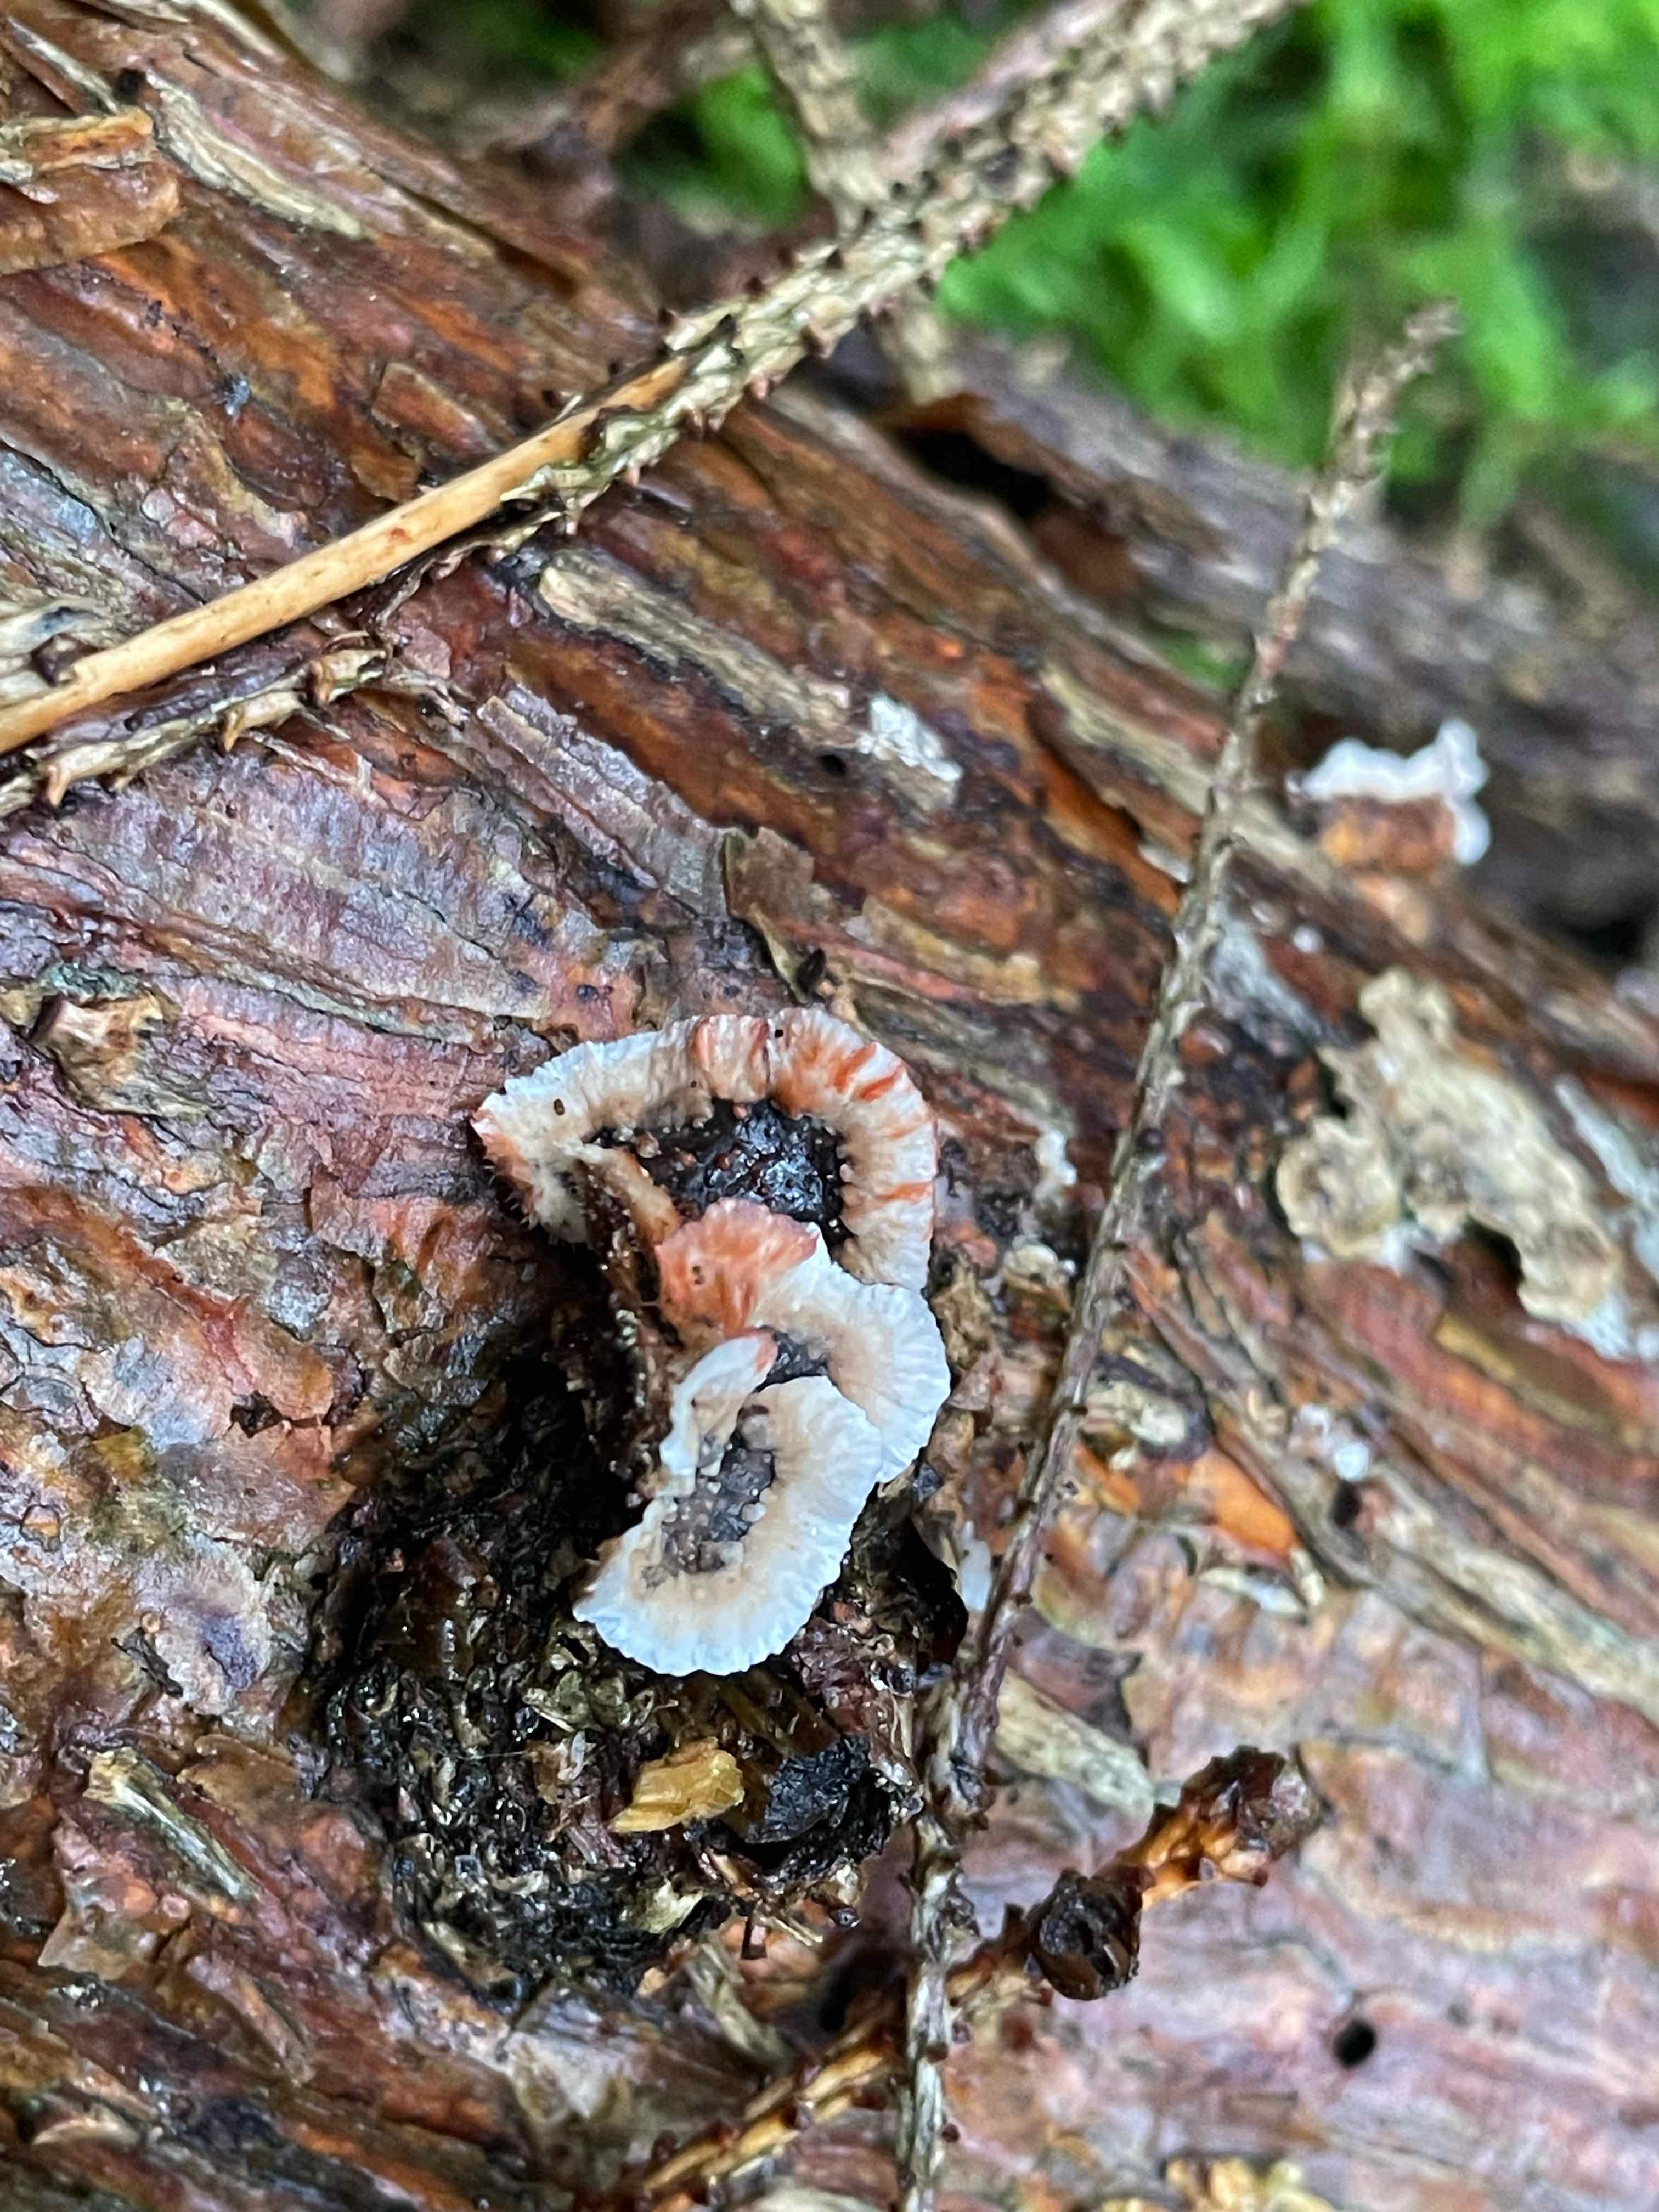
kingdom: Fungi
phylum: Basidiomycota
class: Agaricomycetes
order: Russulales
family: Stereaceae
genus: Stereum
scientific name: Stereum sanguinolentum
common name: blødende lædersvamp
